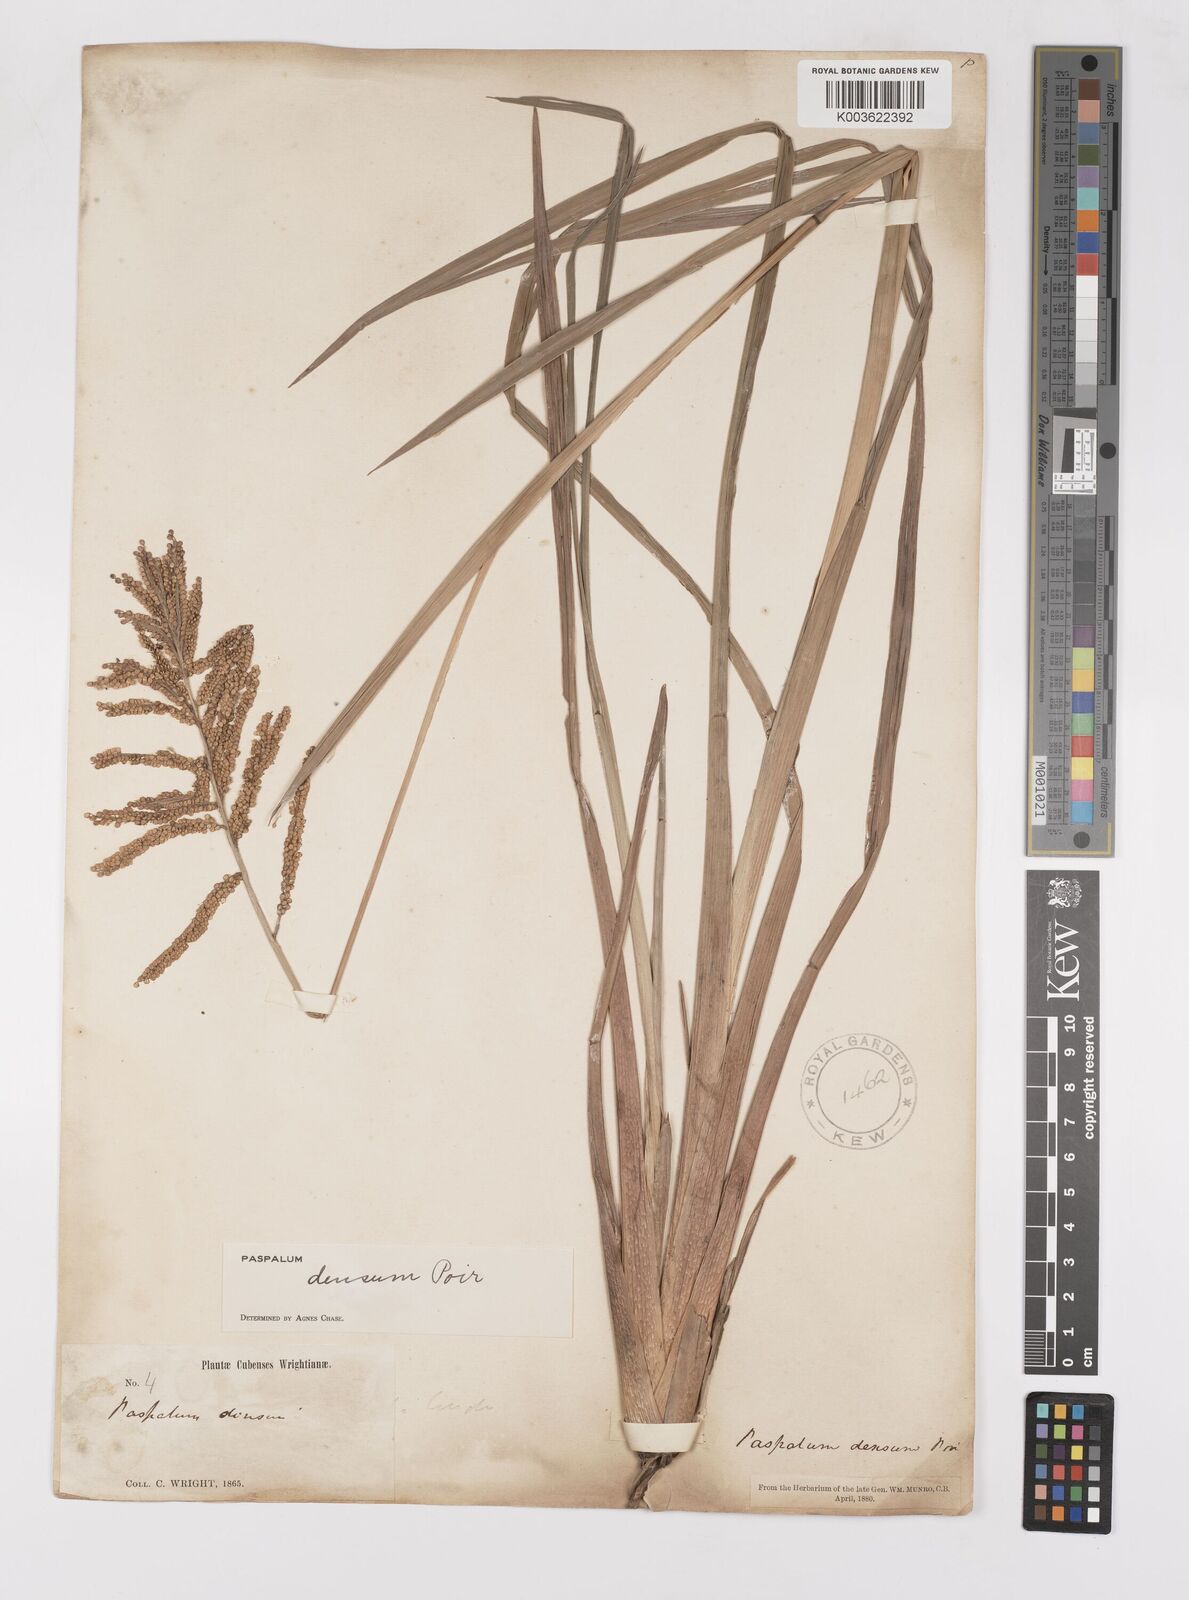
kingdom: Plantae
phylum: Tracheophyta
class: Liliopsida
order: Poales
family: Poaceae
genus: Paspalum
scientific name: Paspalum densum
